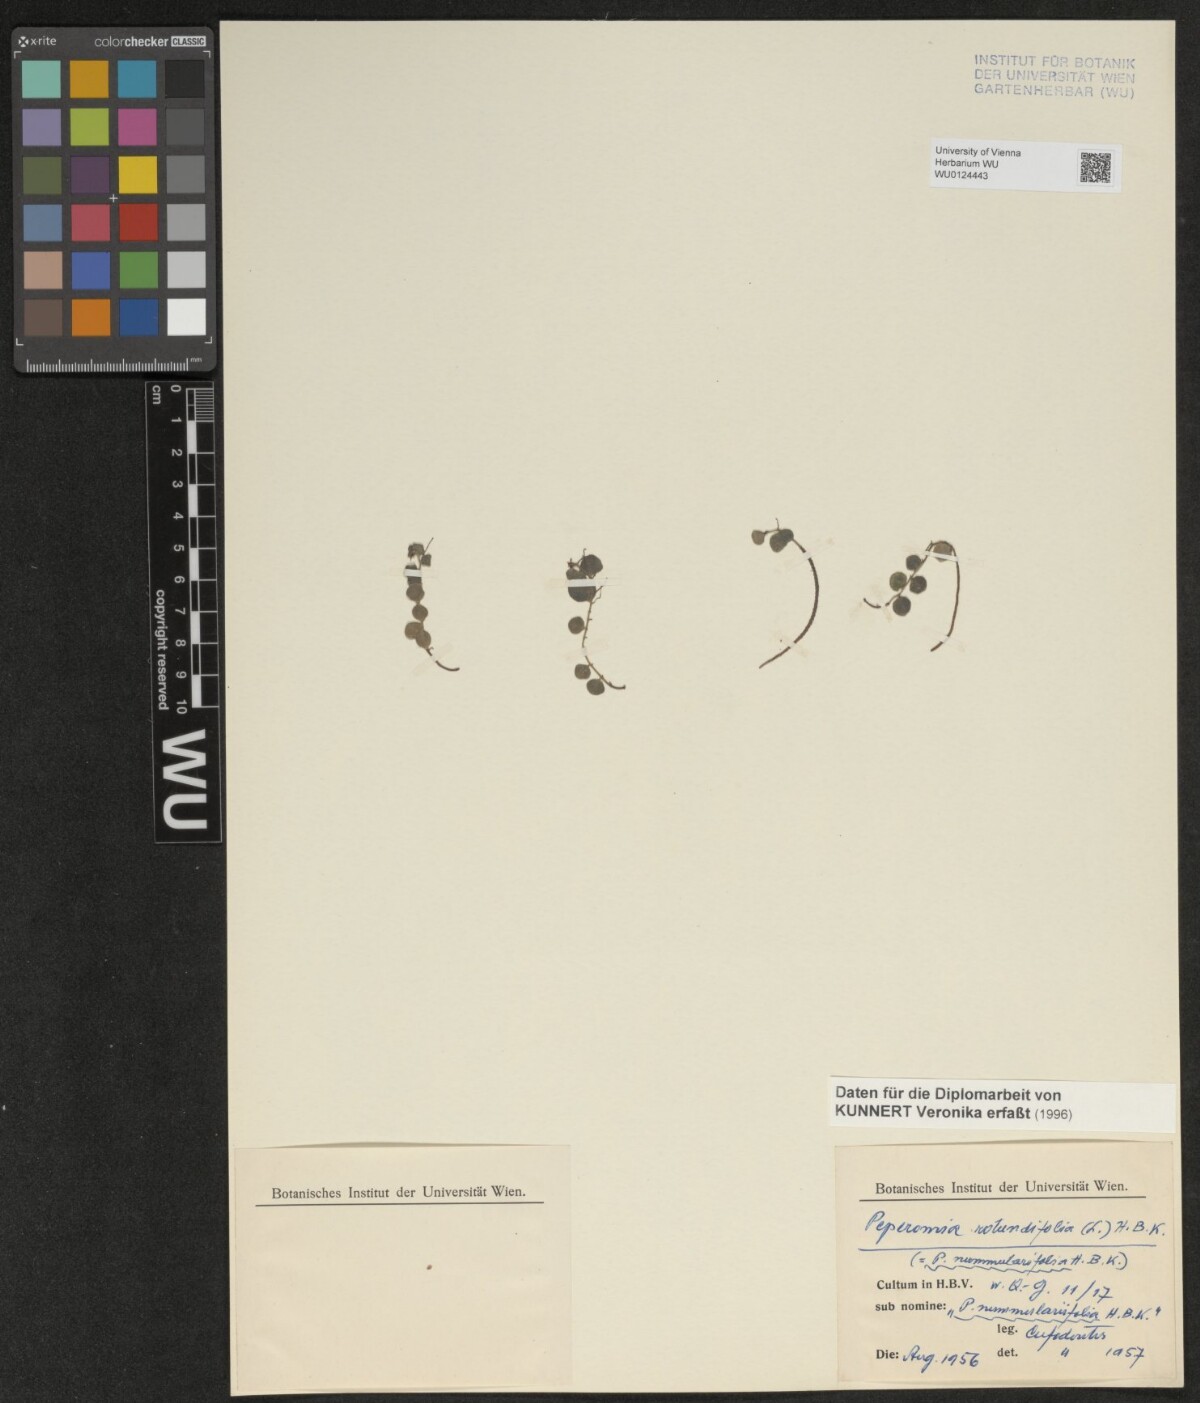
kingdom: Plantae
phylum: Tracheophyta
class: Magnoliopsida
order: Piperales
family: Piperaceae
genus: Peperomia
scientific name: Peperomia rotundifolia
